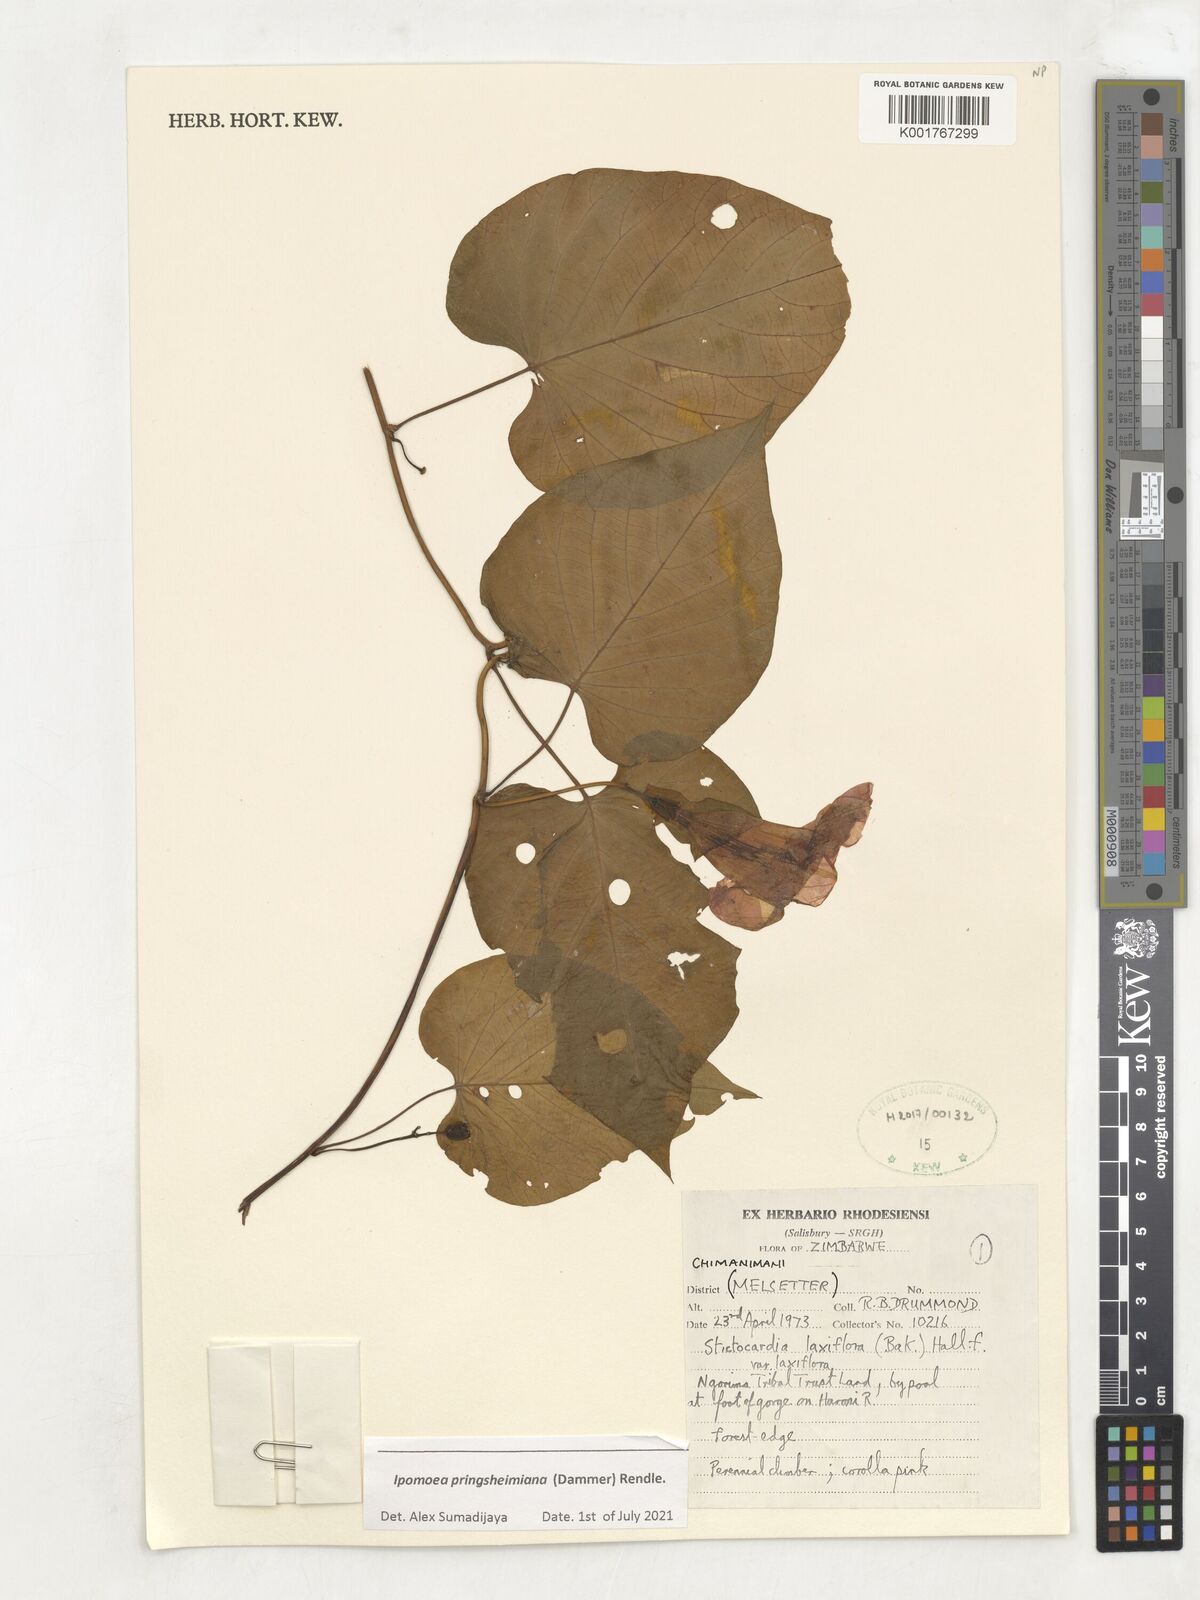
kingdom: Plantae
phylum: Tracheophyta
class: Magnoliopsida
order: Solanales
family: Convolvulaceae
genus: Stictocardia
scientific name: Stictocardia laxiflora
